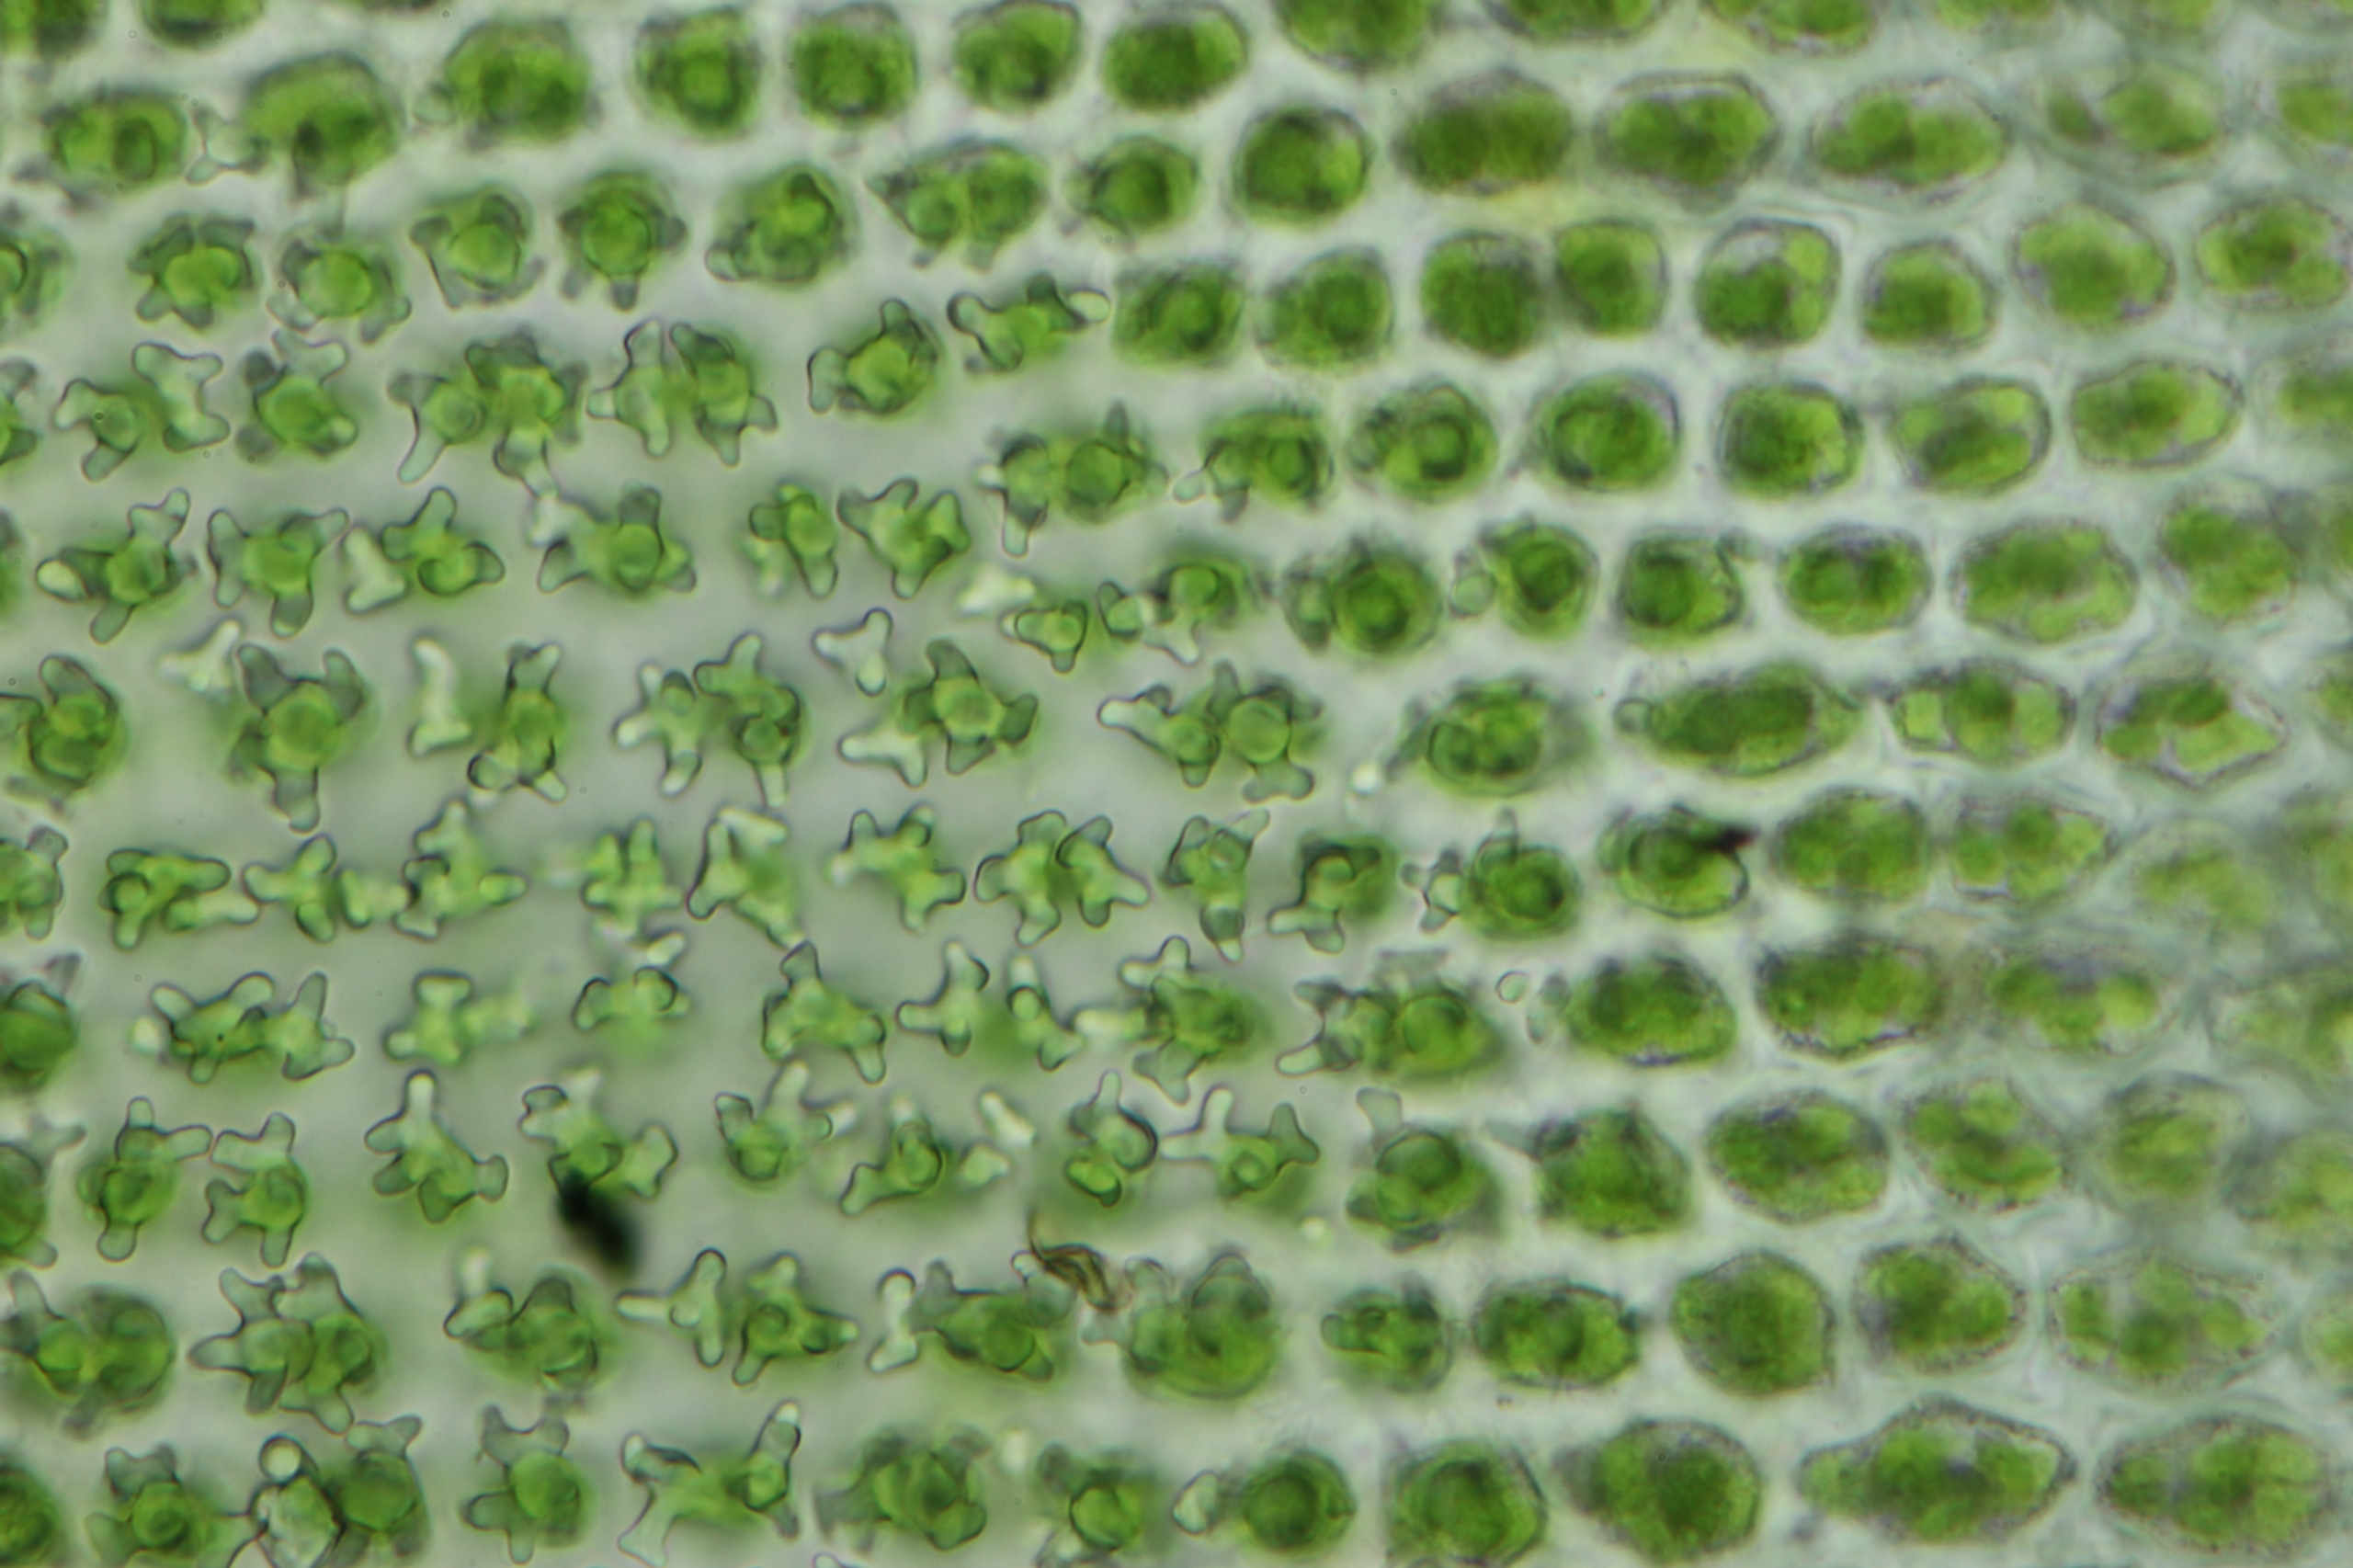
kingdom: Plantae
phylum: Bryophyta
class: Bryopsida
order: Hedwigiales
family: Hedwigiaceae
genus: Hedwigia
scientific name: Hedwigia ciliata
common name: Hvidspidset hedwigia
